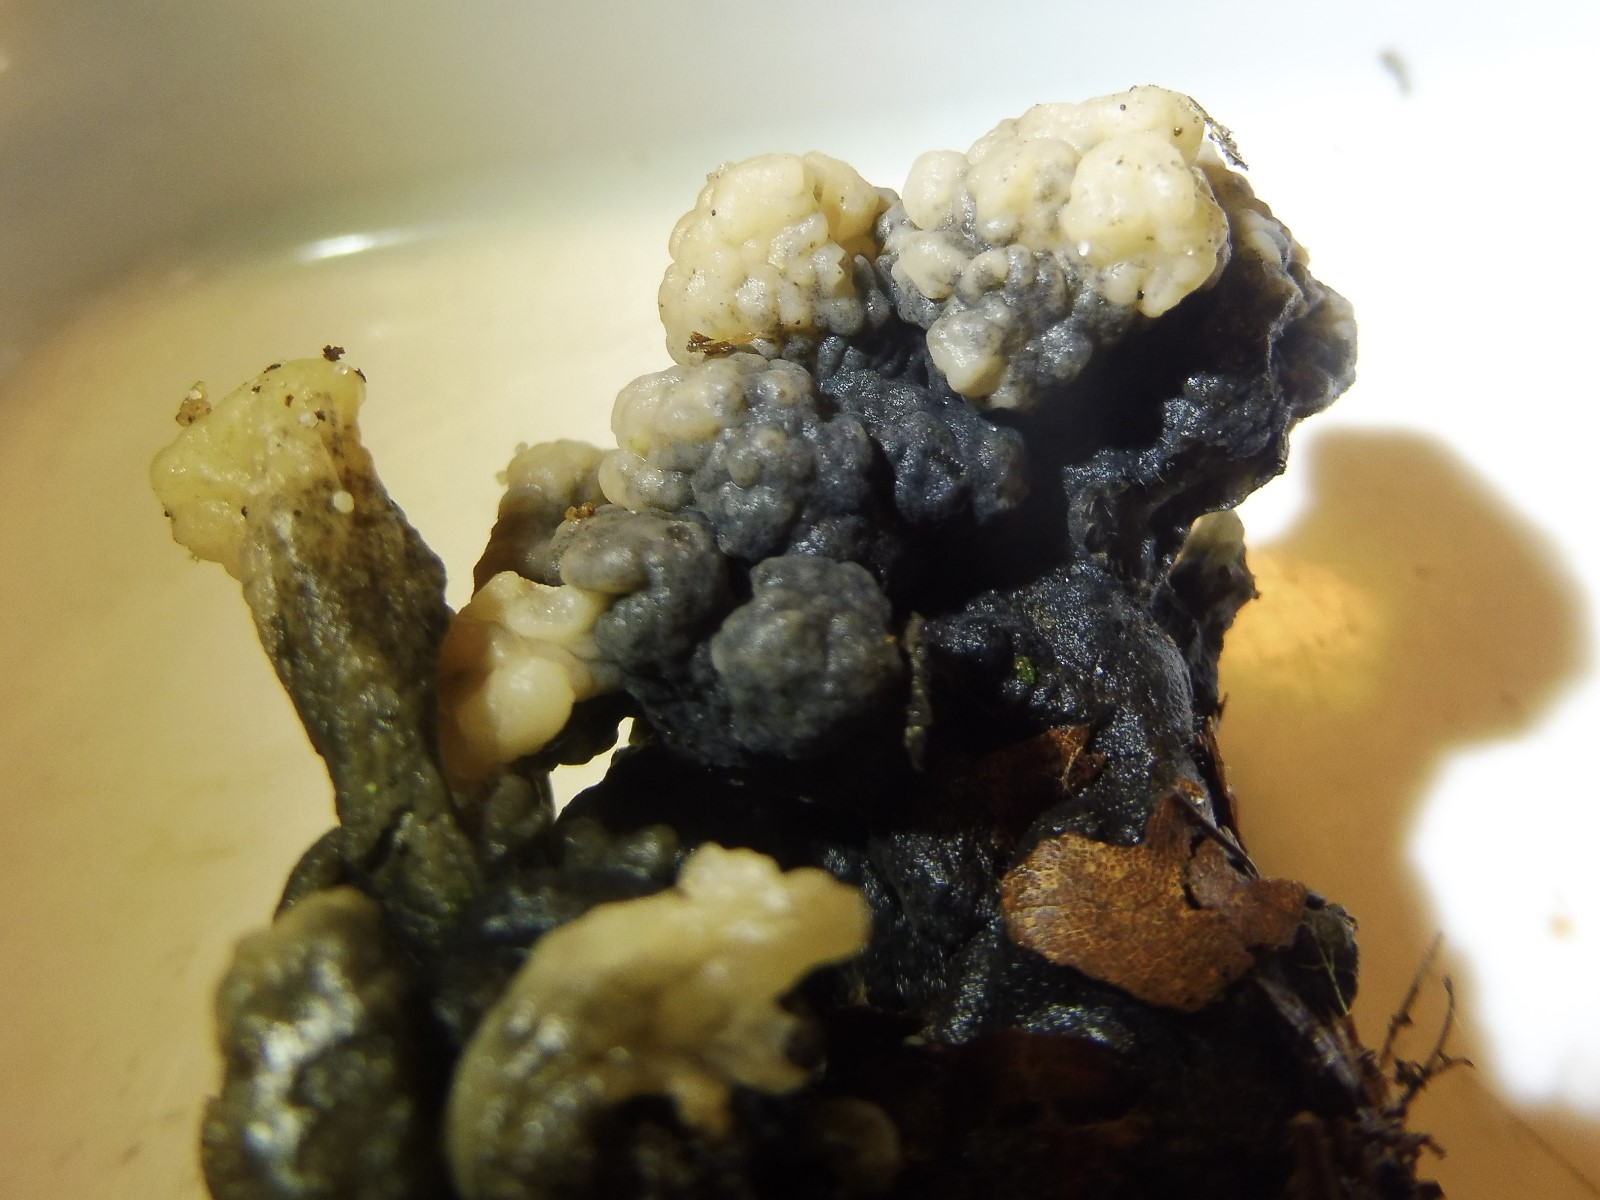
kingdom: Fungi
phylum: Ascomycota
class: Sordariomycetes
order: Sordariales
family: Helminthosphaeriaceae
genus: Helminthosphaeria
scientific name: Helminthosphaeria clavariarum
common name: trold-svampesnyltekerne
